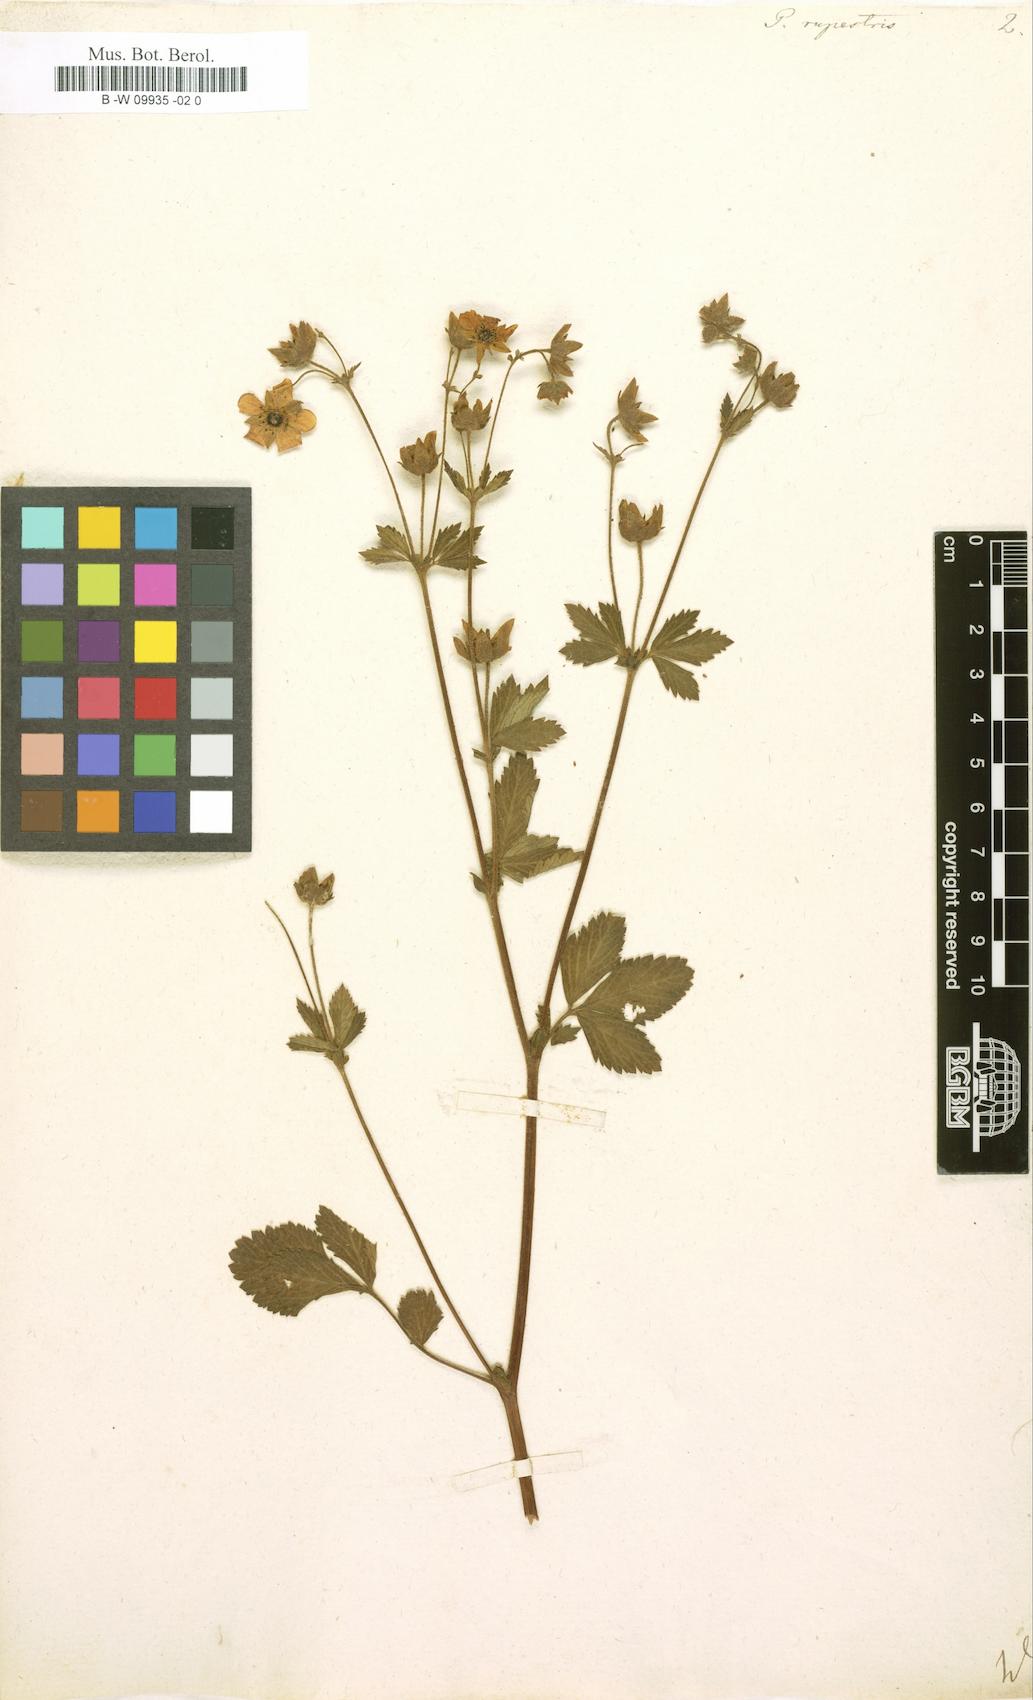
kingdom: Plantae
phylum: Tracheophyta
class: Magnoliopsida
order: Rosales
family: Rosaceae
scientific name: Rosaceae
